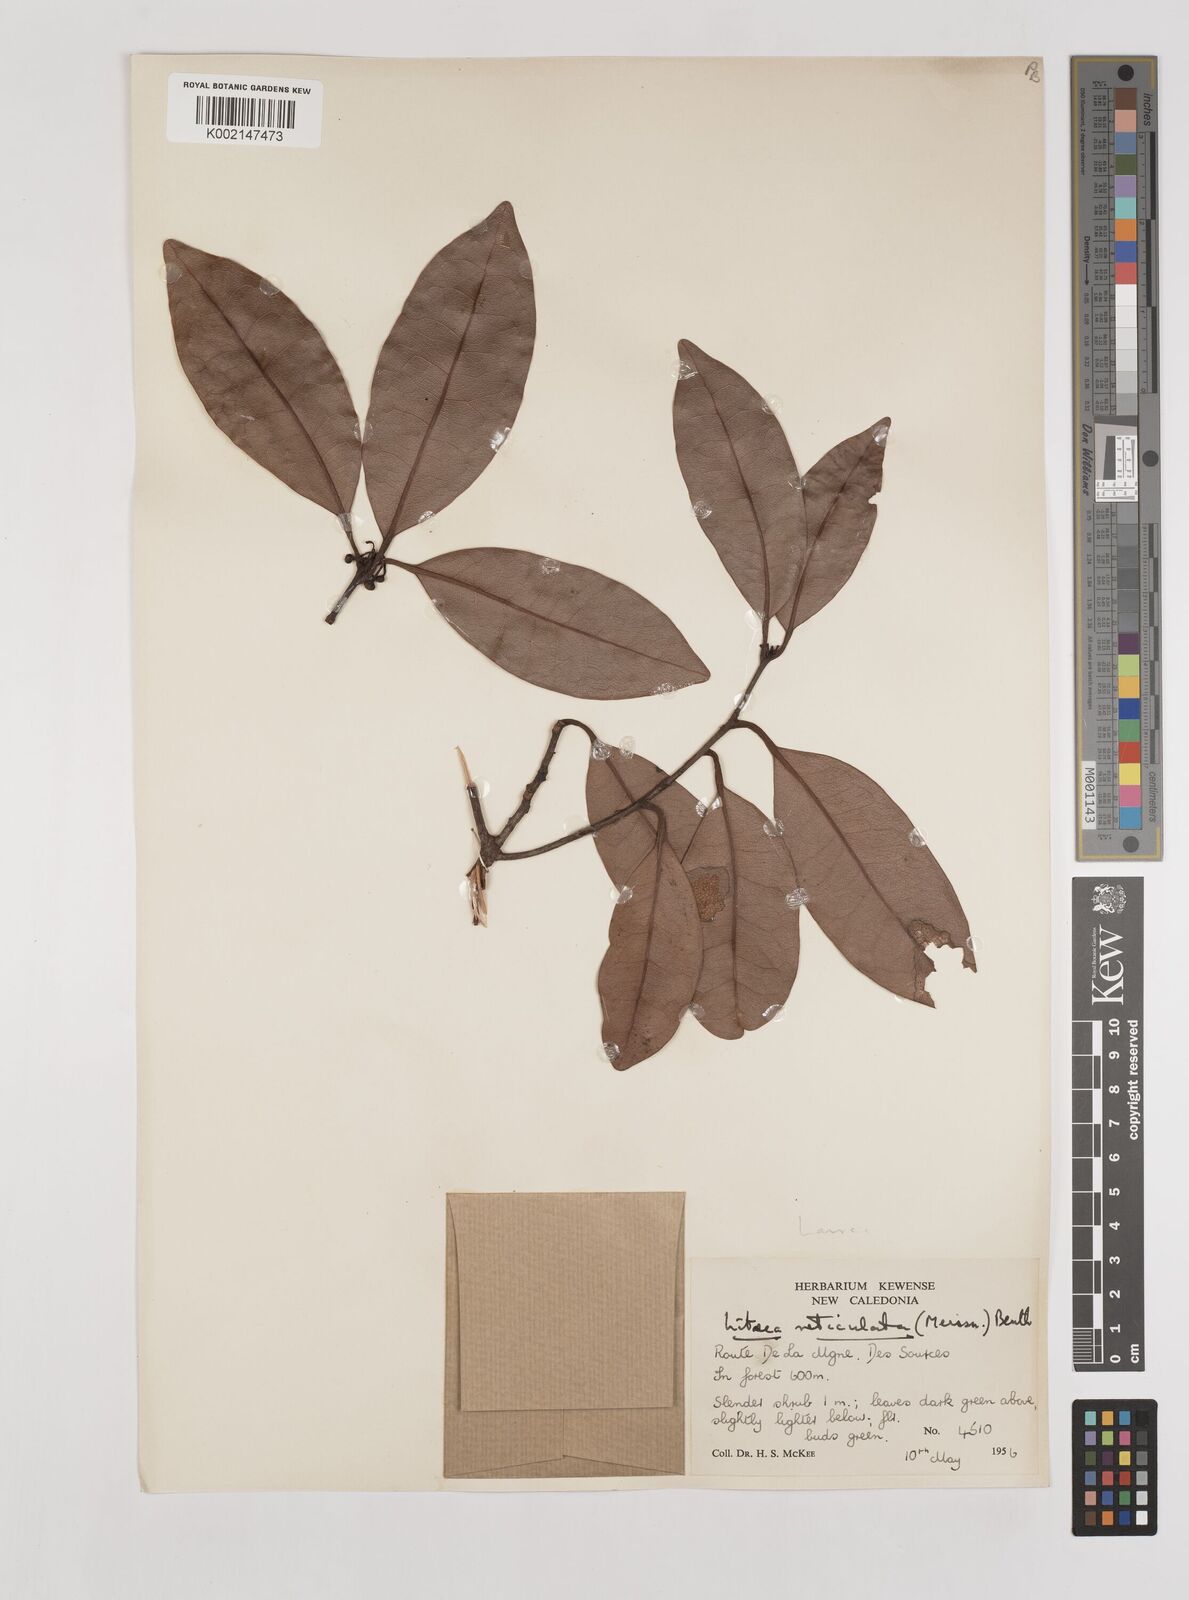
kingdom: Plantae
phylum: Tracheophyta
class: Magnoliopsida
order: Laurales
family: Lauraceae
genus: Litsea
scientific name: Litsea reticulata
